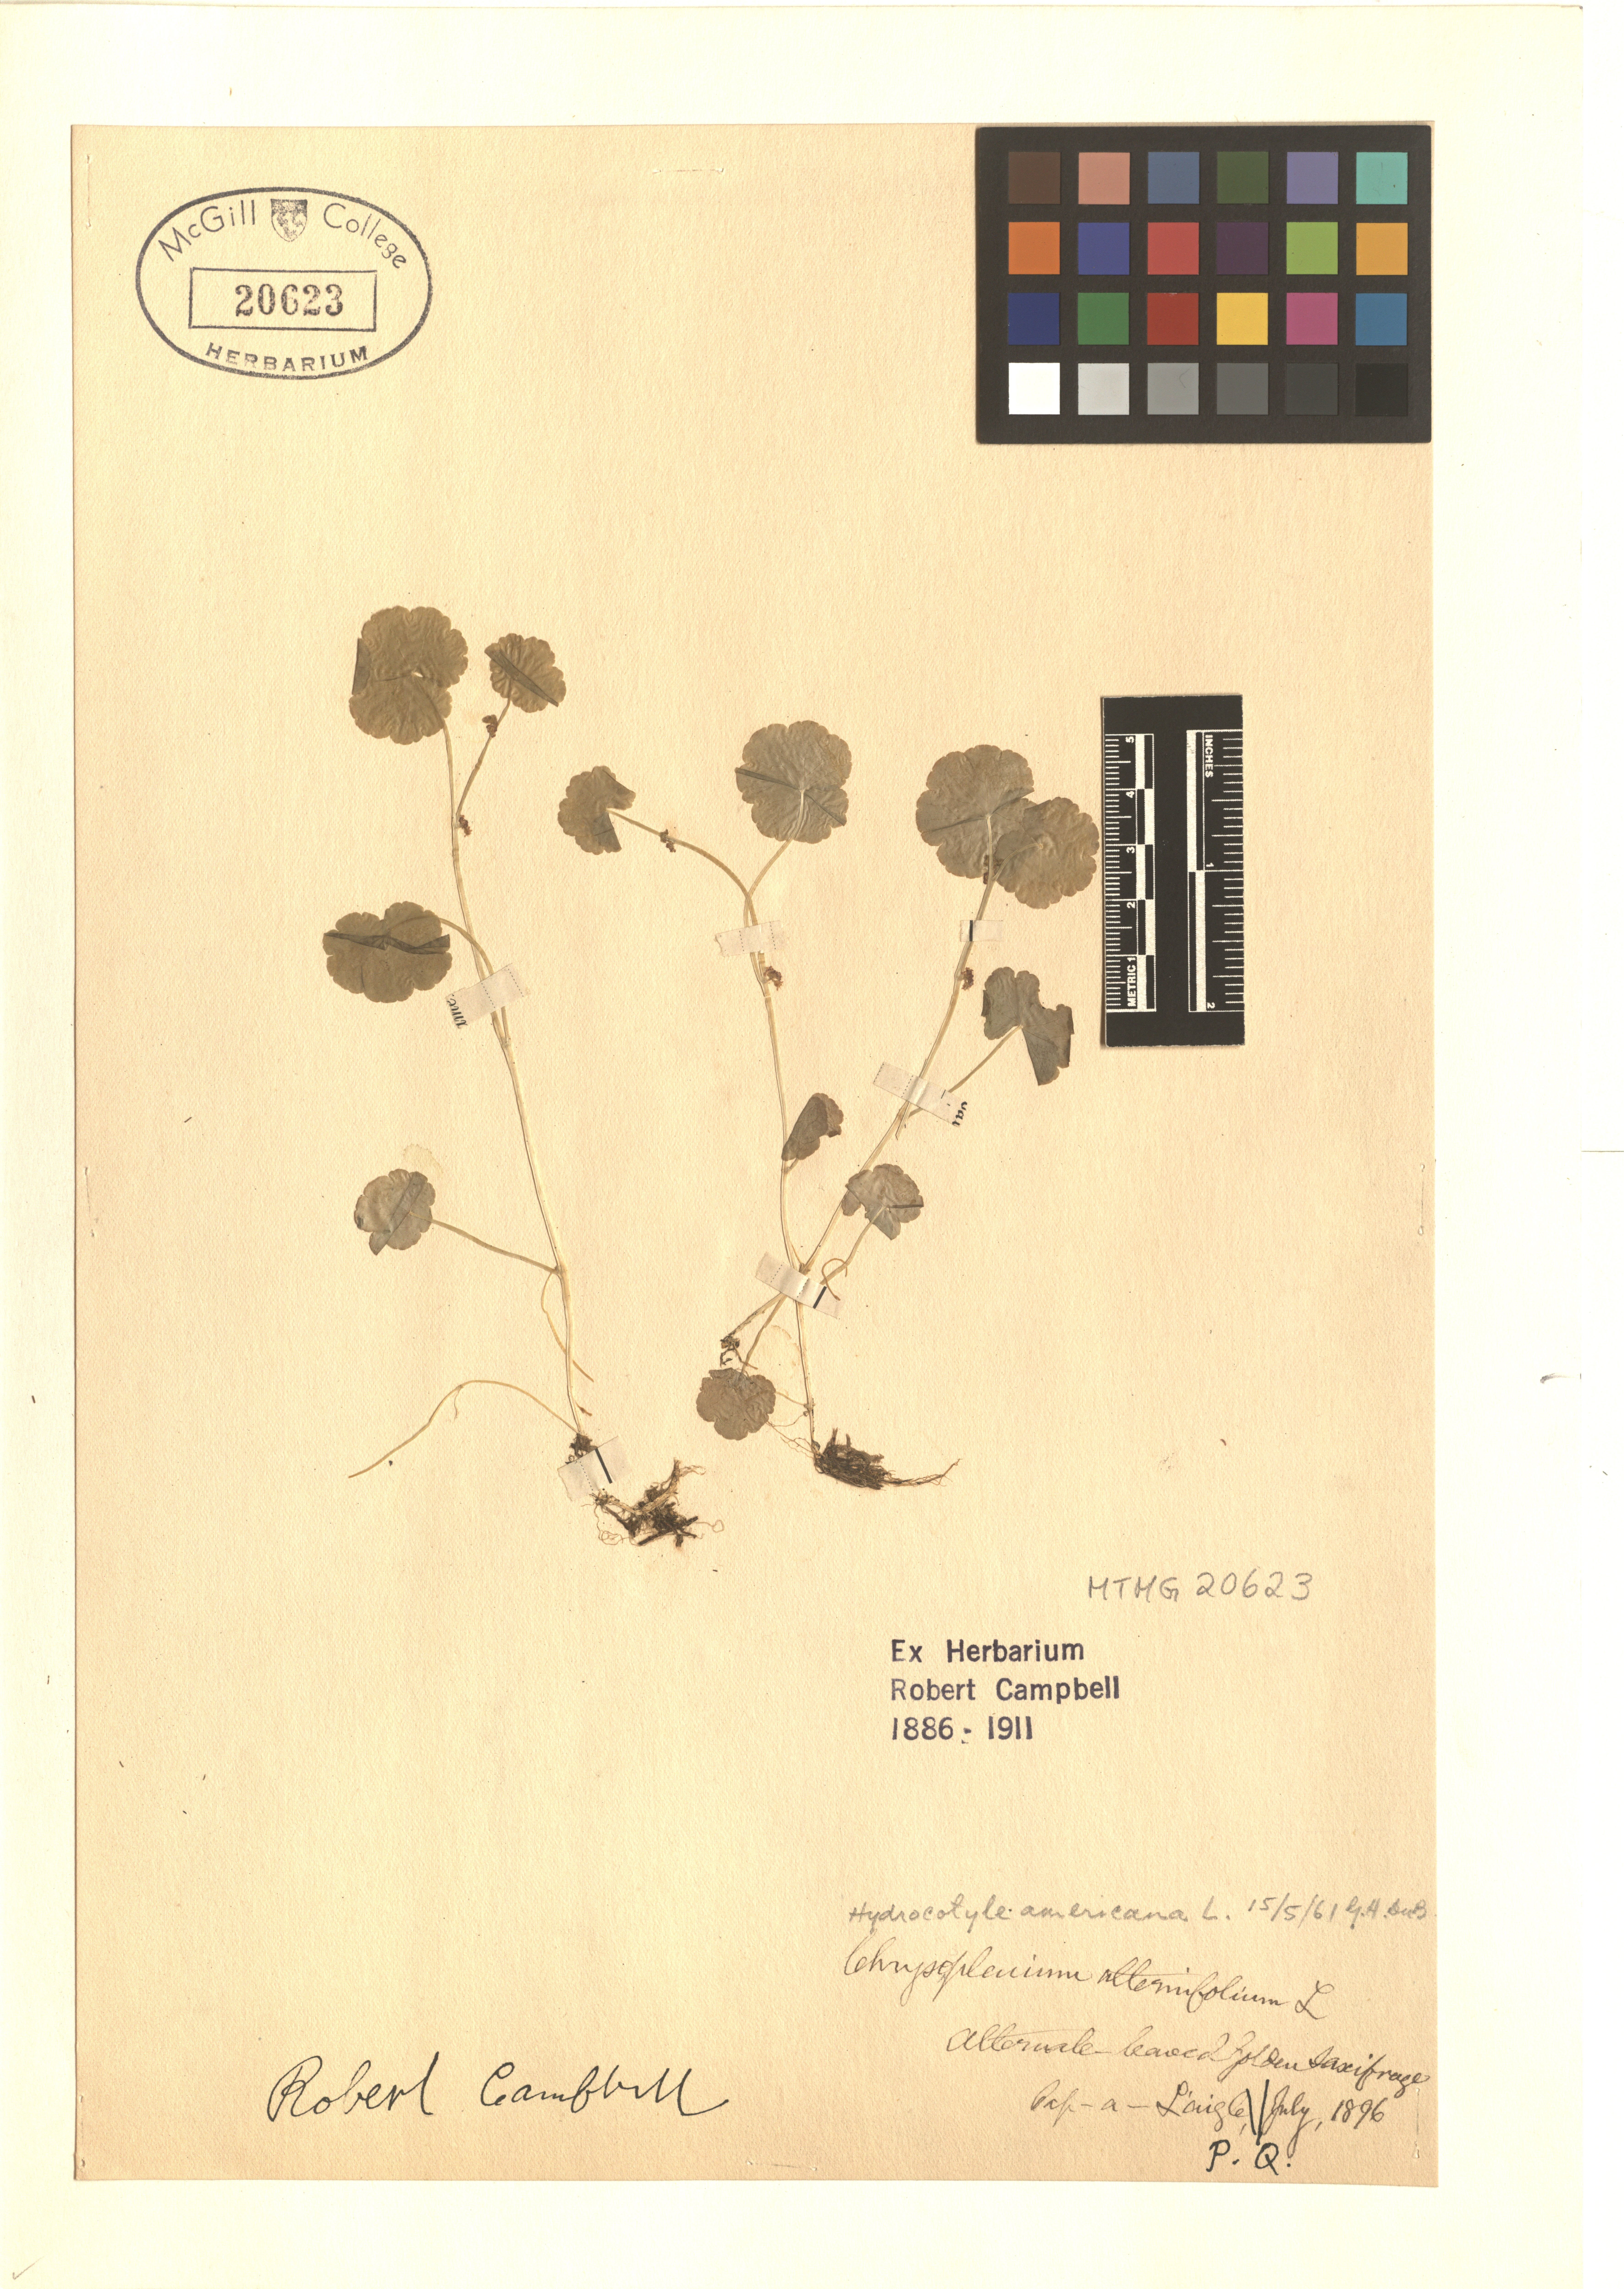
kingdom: Plantae
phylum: Tracheophyta
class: Magnoliopsida
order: Apiales
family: Araliaceae
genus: Hydrocotyle
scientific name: Hydrocotyle americana
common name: American water-pennywort
